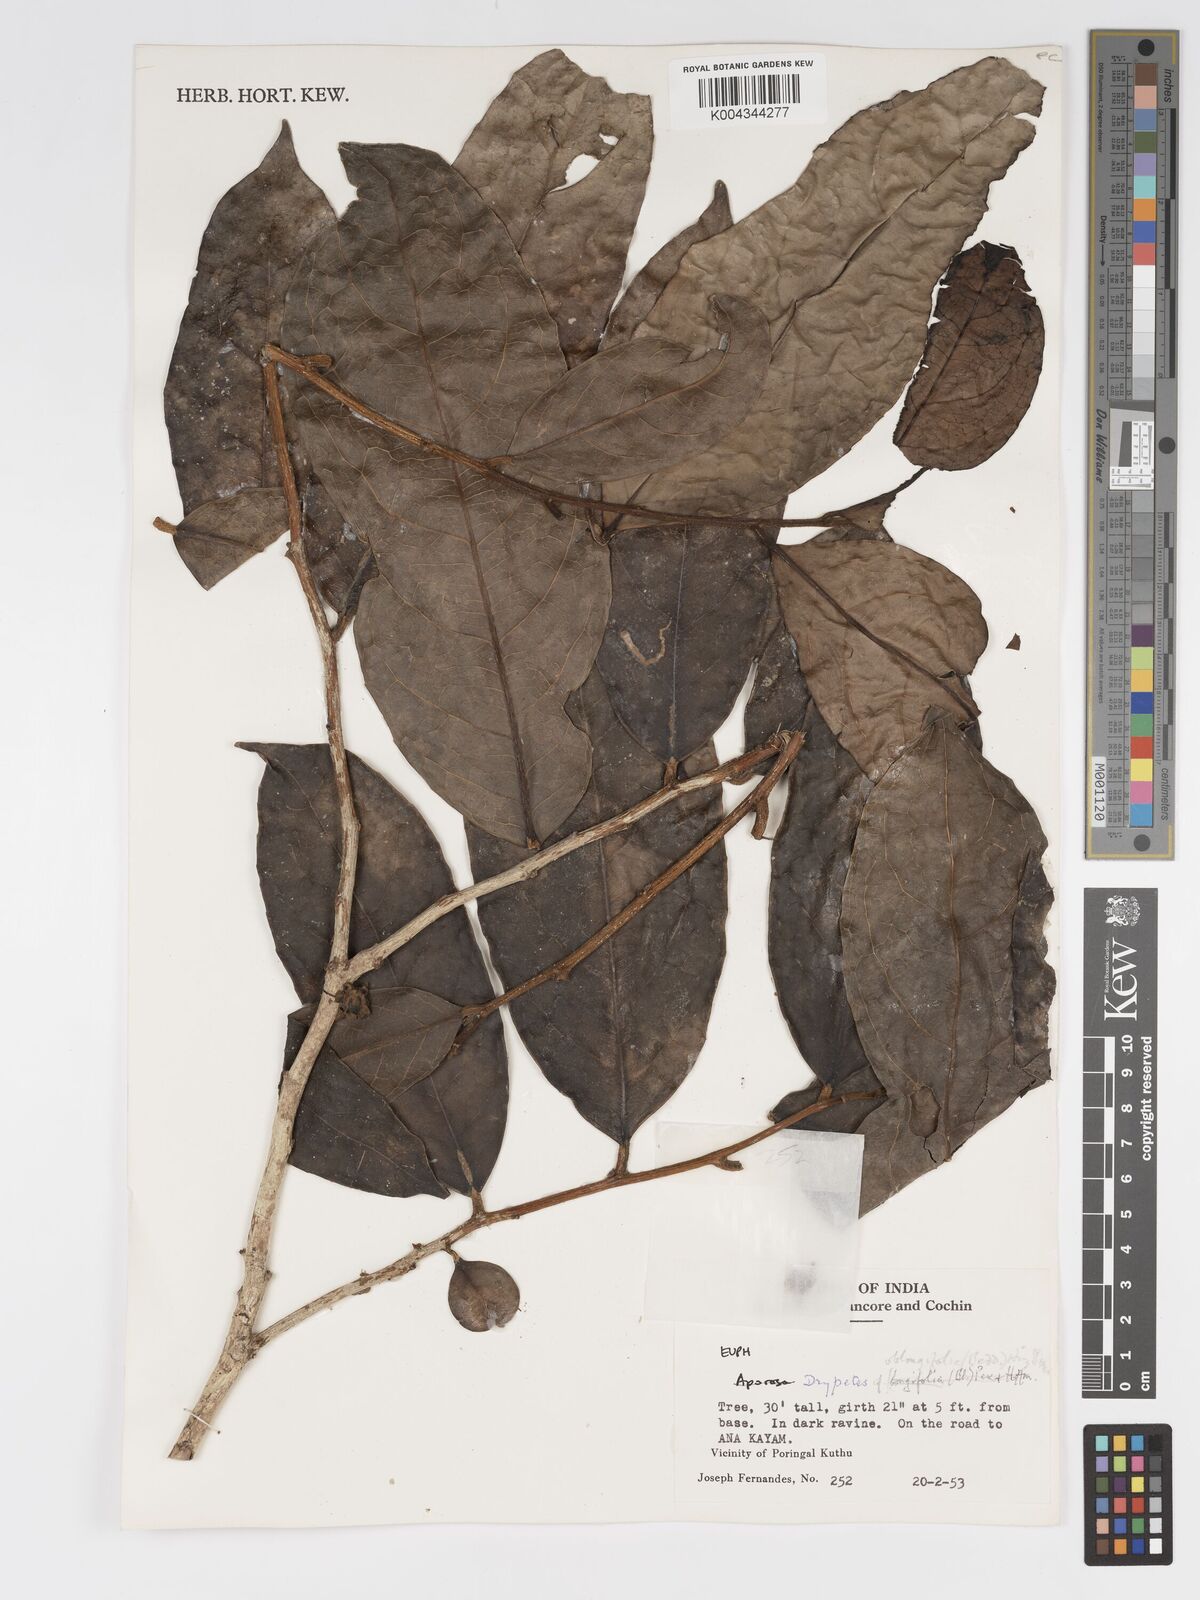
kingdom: Plantae
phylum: Tracheophyta
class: Magnoliopsida
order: Malpighiales
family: Putranjivaceae
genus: Drypetes
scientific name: Drypetes oblongifolia
